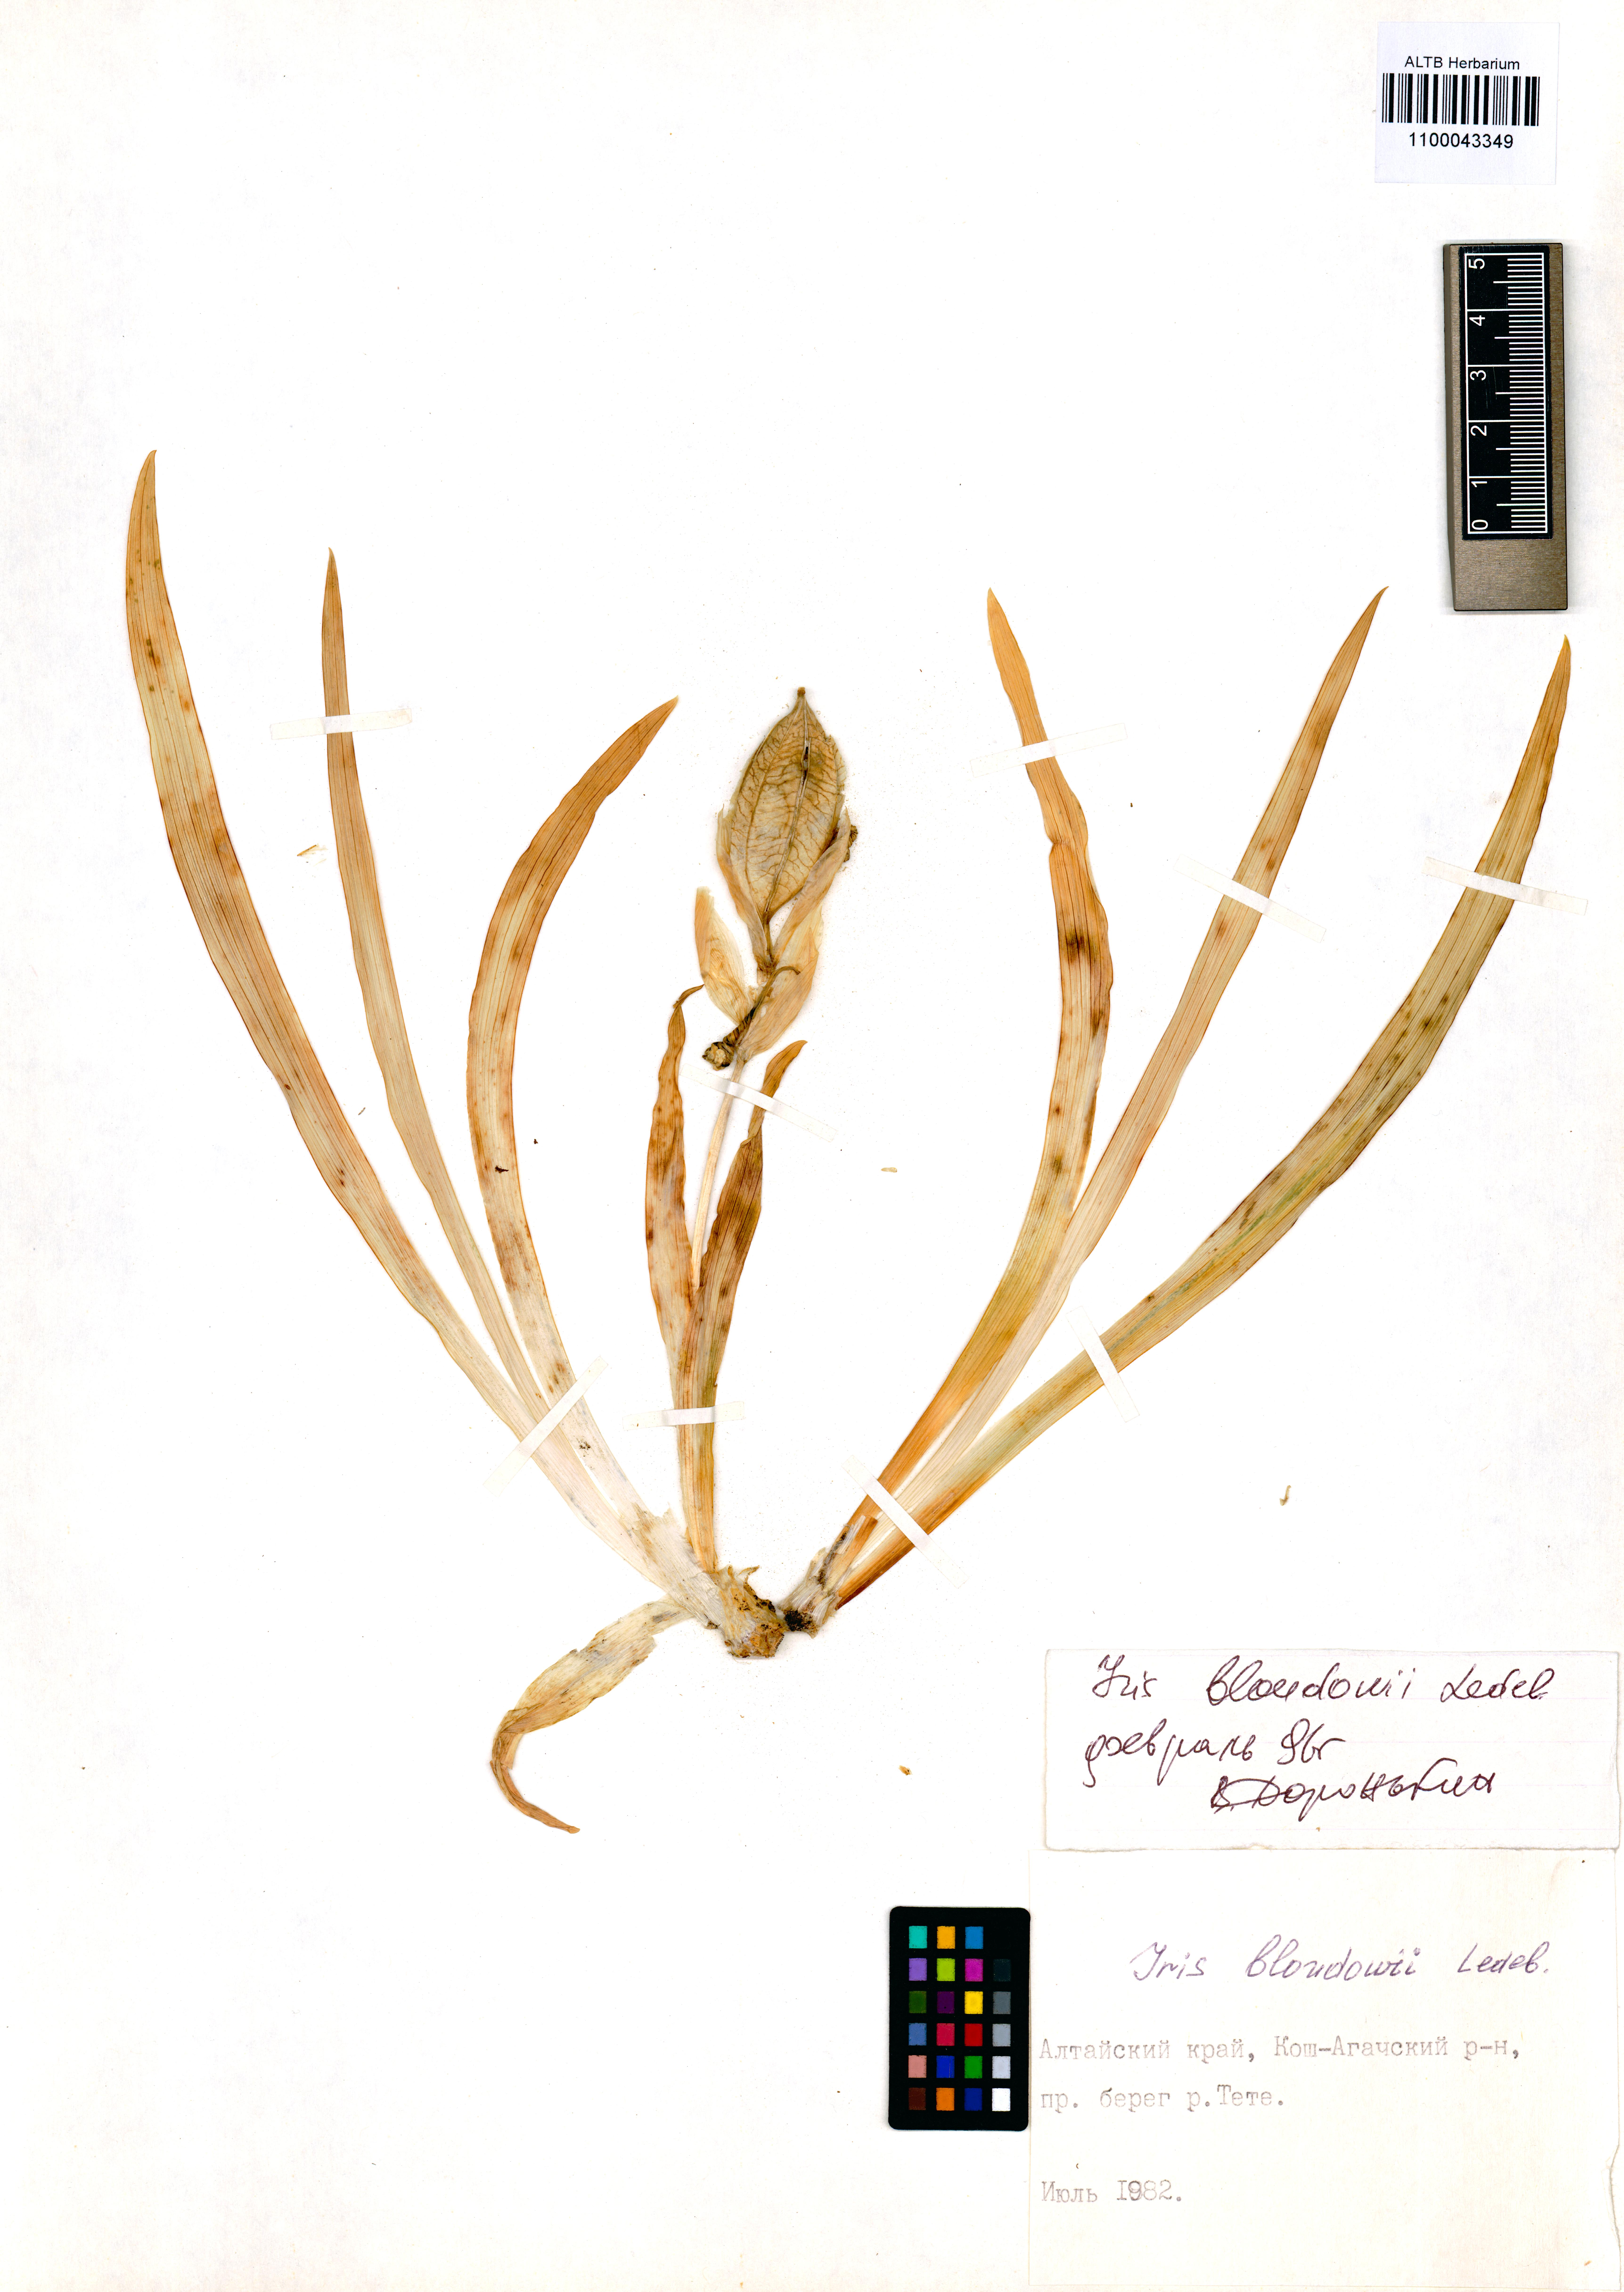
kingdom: Plantae
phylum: Tracheophyta
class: Liliopsida
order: Asparagales
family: Iridaceae
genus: Iris
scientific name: Iris bloudowii
